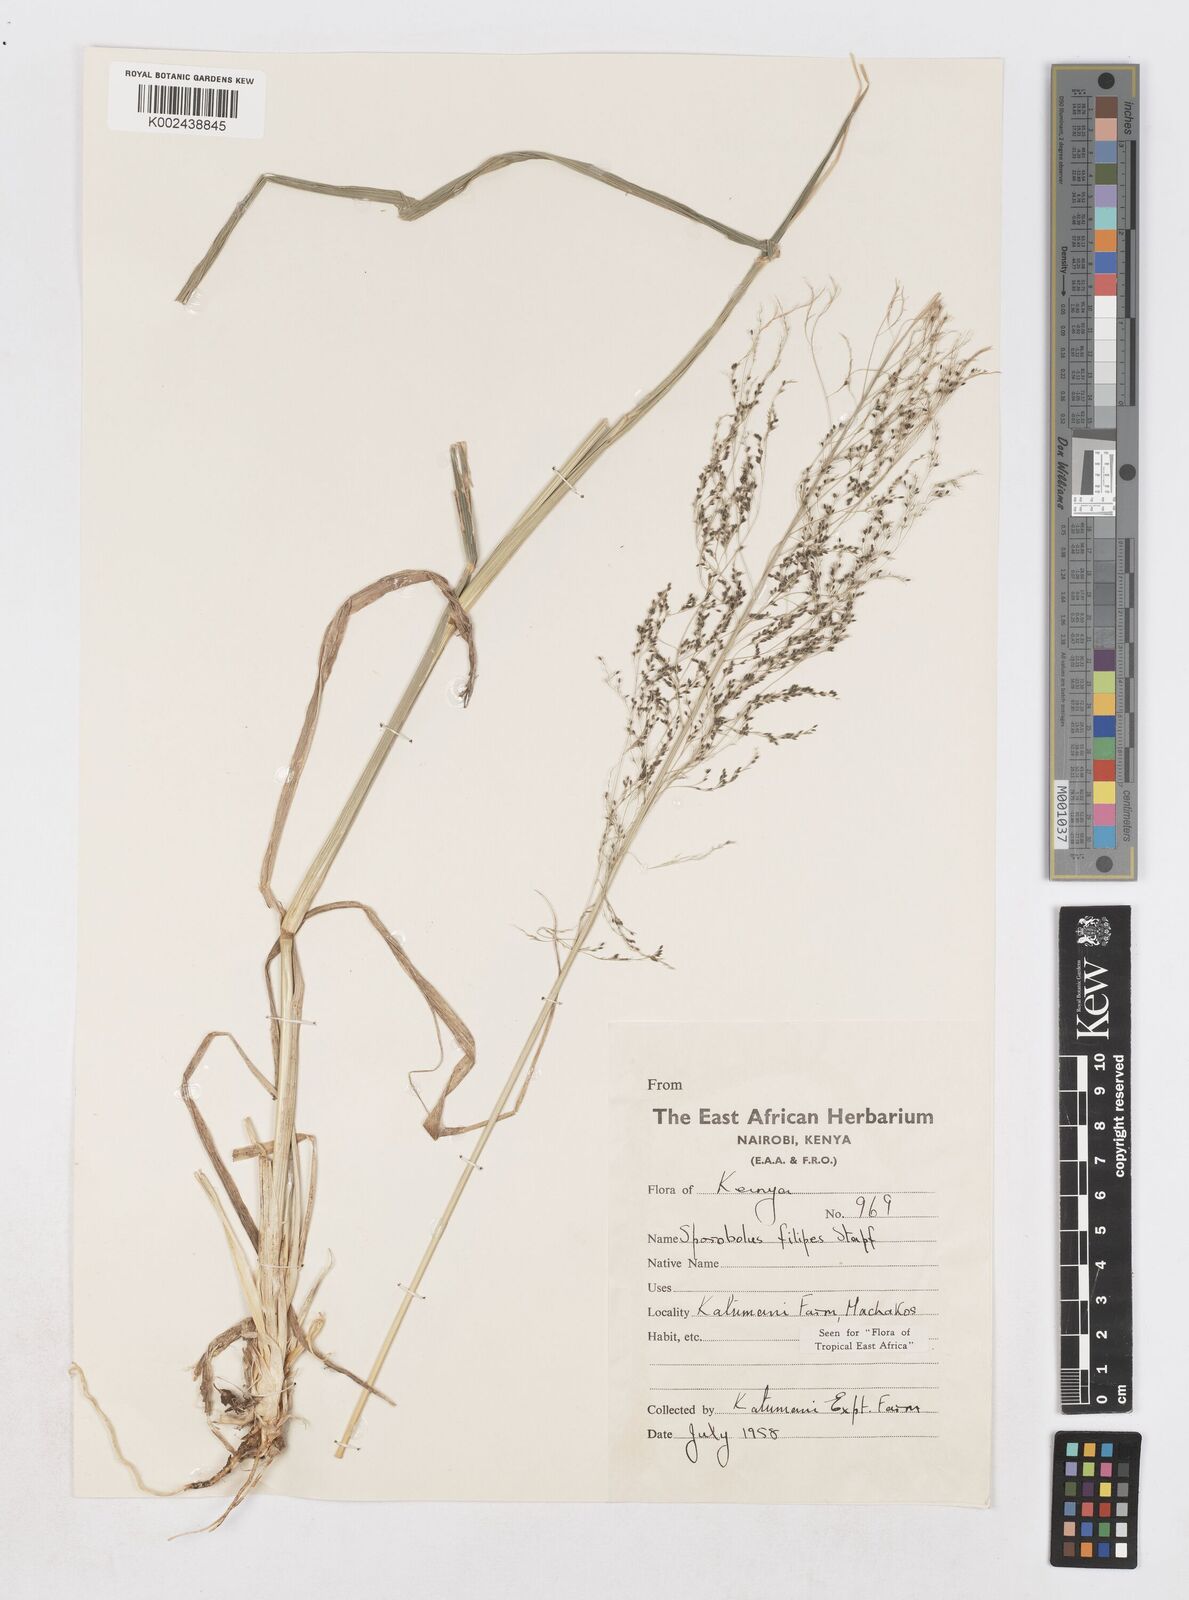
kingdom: Plantae
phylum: Tracheophyta
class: Liliopsida
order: Poales
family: Poaceae
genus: Sporobolus
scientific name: Sporobolus agrostoides
